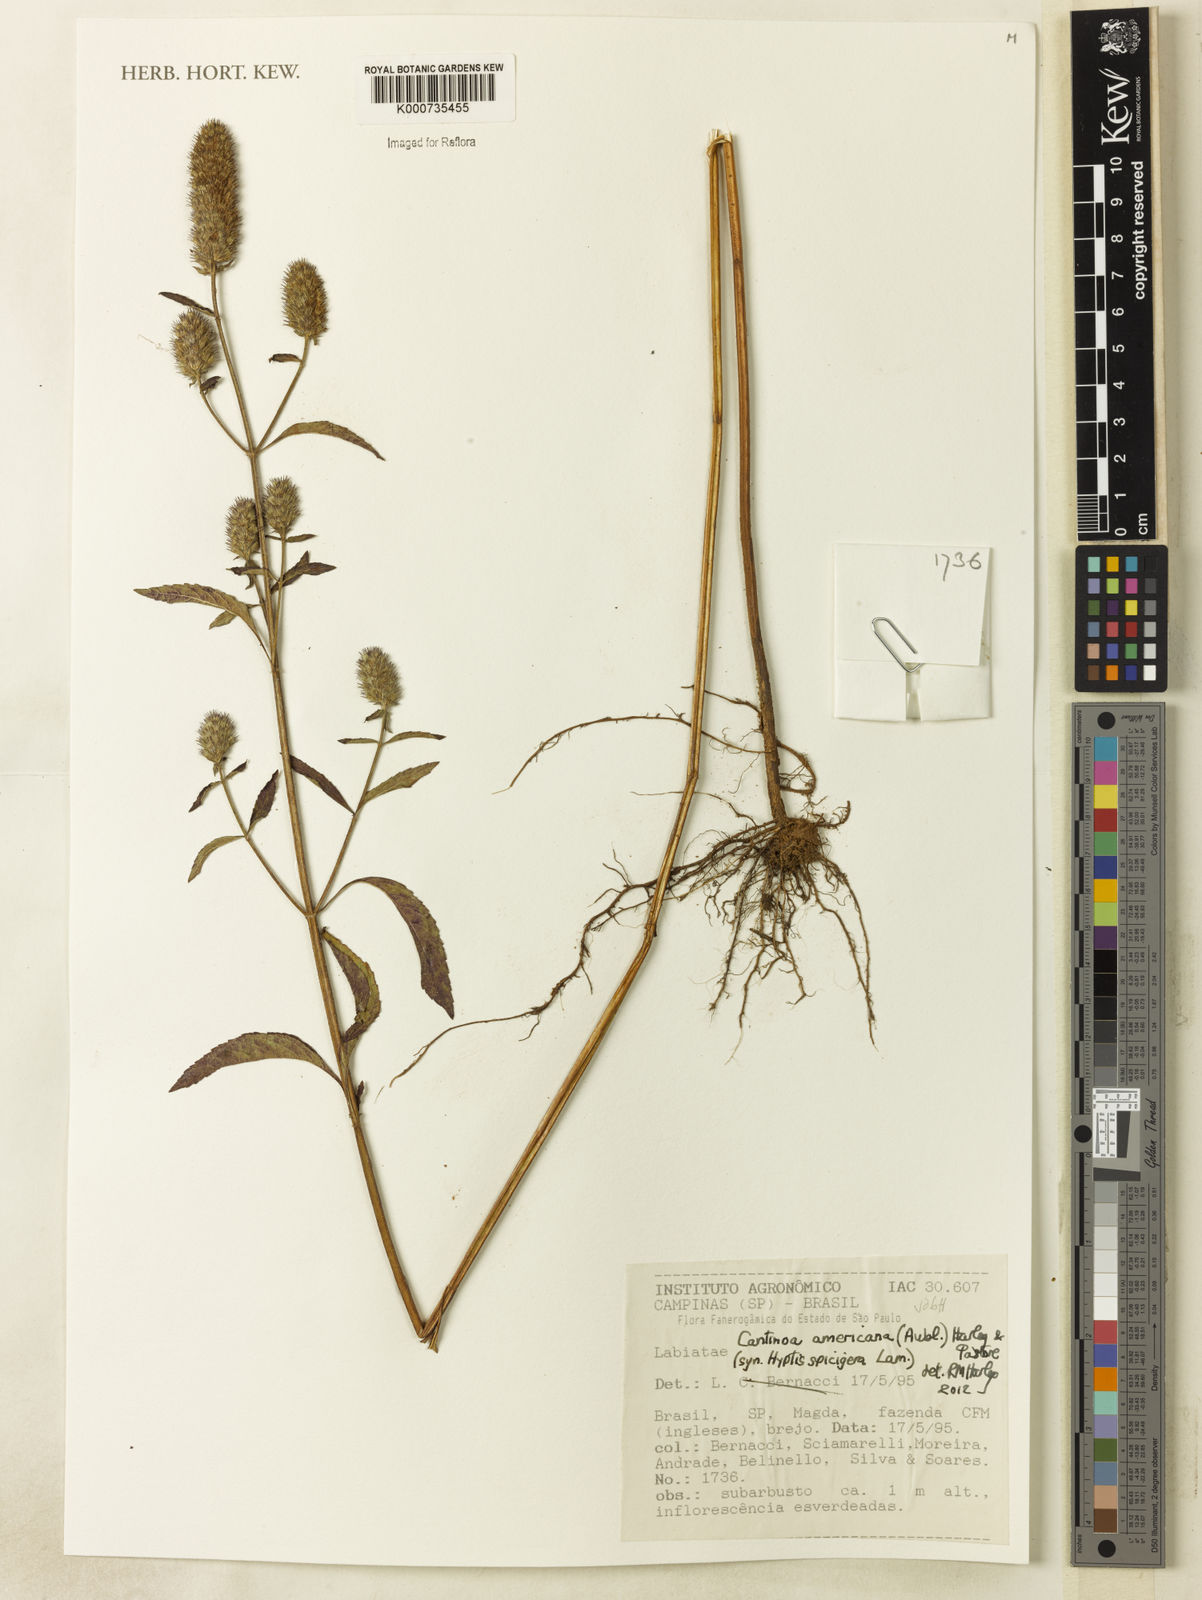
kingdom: Plantae
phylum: Tracheophyta
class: Magnoliopsida
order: Lamiales
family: Lamiaceae
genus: Cantinoa
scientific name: Cantinoa americana
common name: Black-sesame
